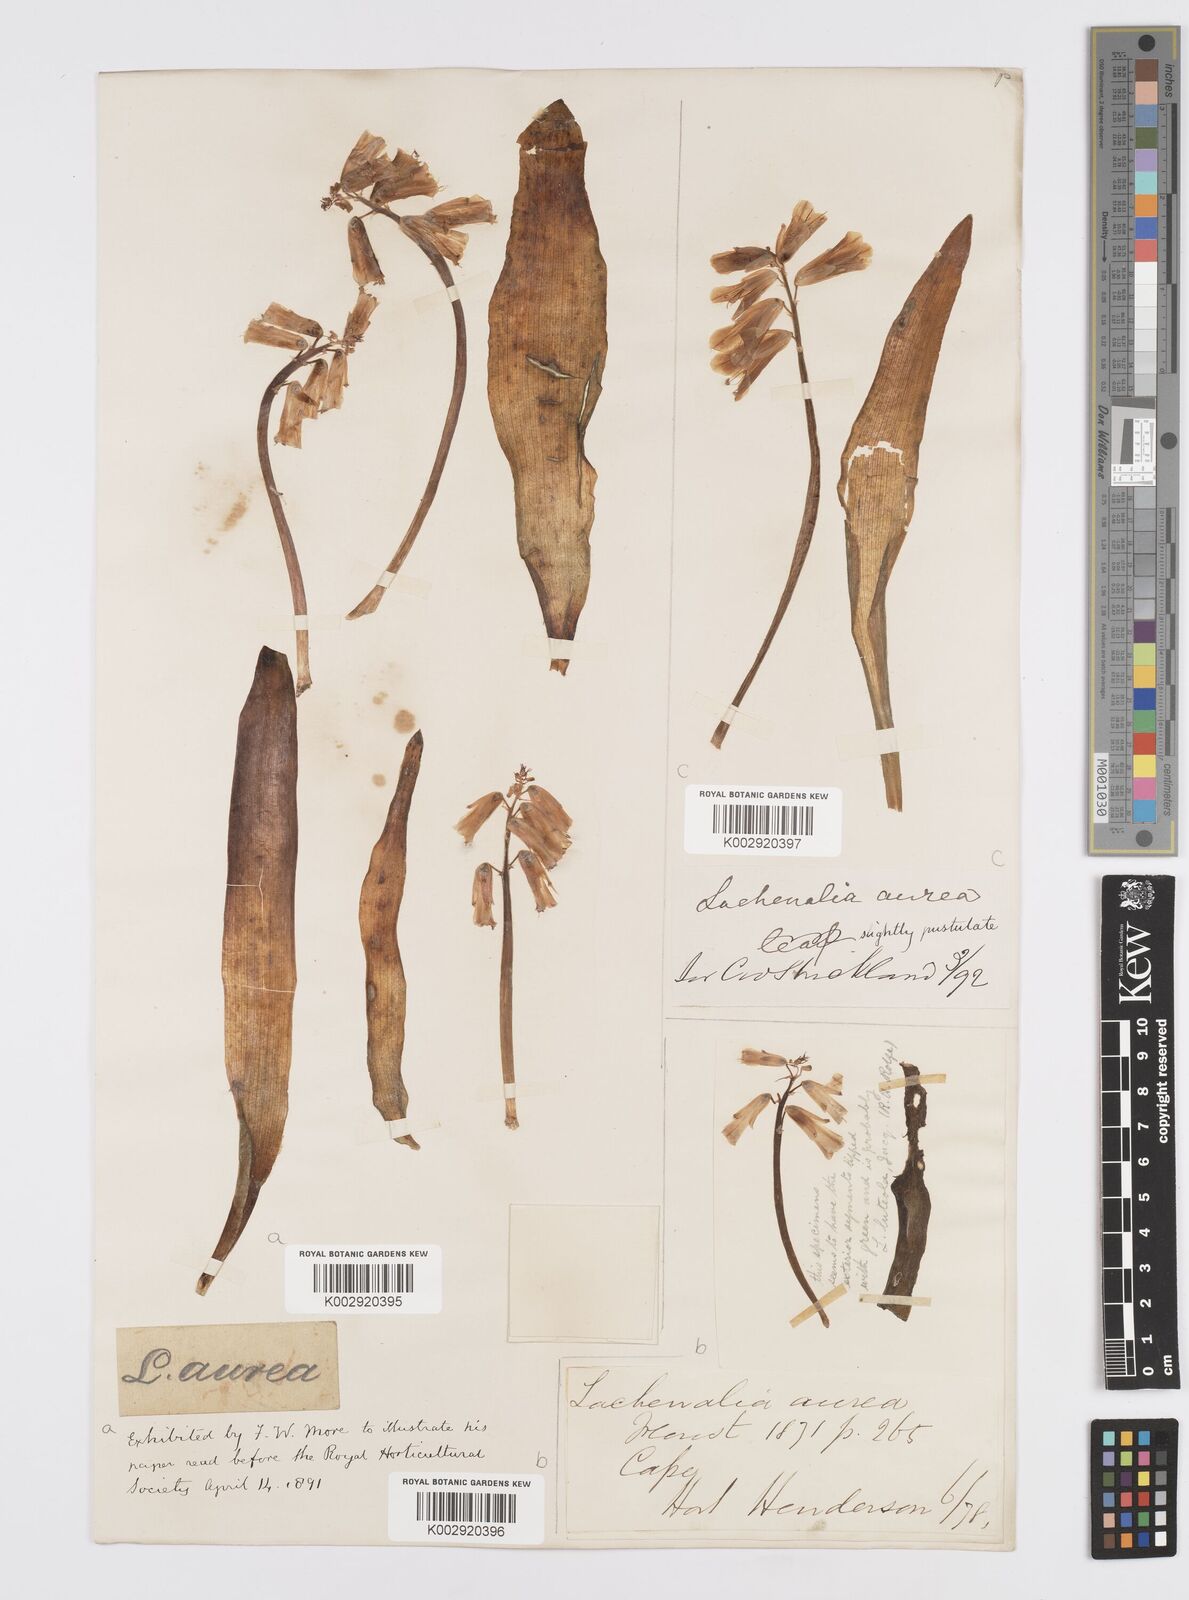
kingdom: Plantae
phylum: Tracheophyta
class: Liliopsida
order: Asparagales
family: Asparagaceae
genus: Lachenalia
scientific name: Lachenalia
